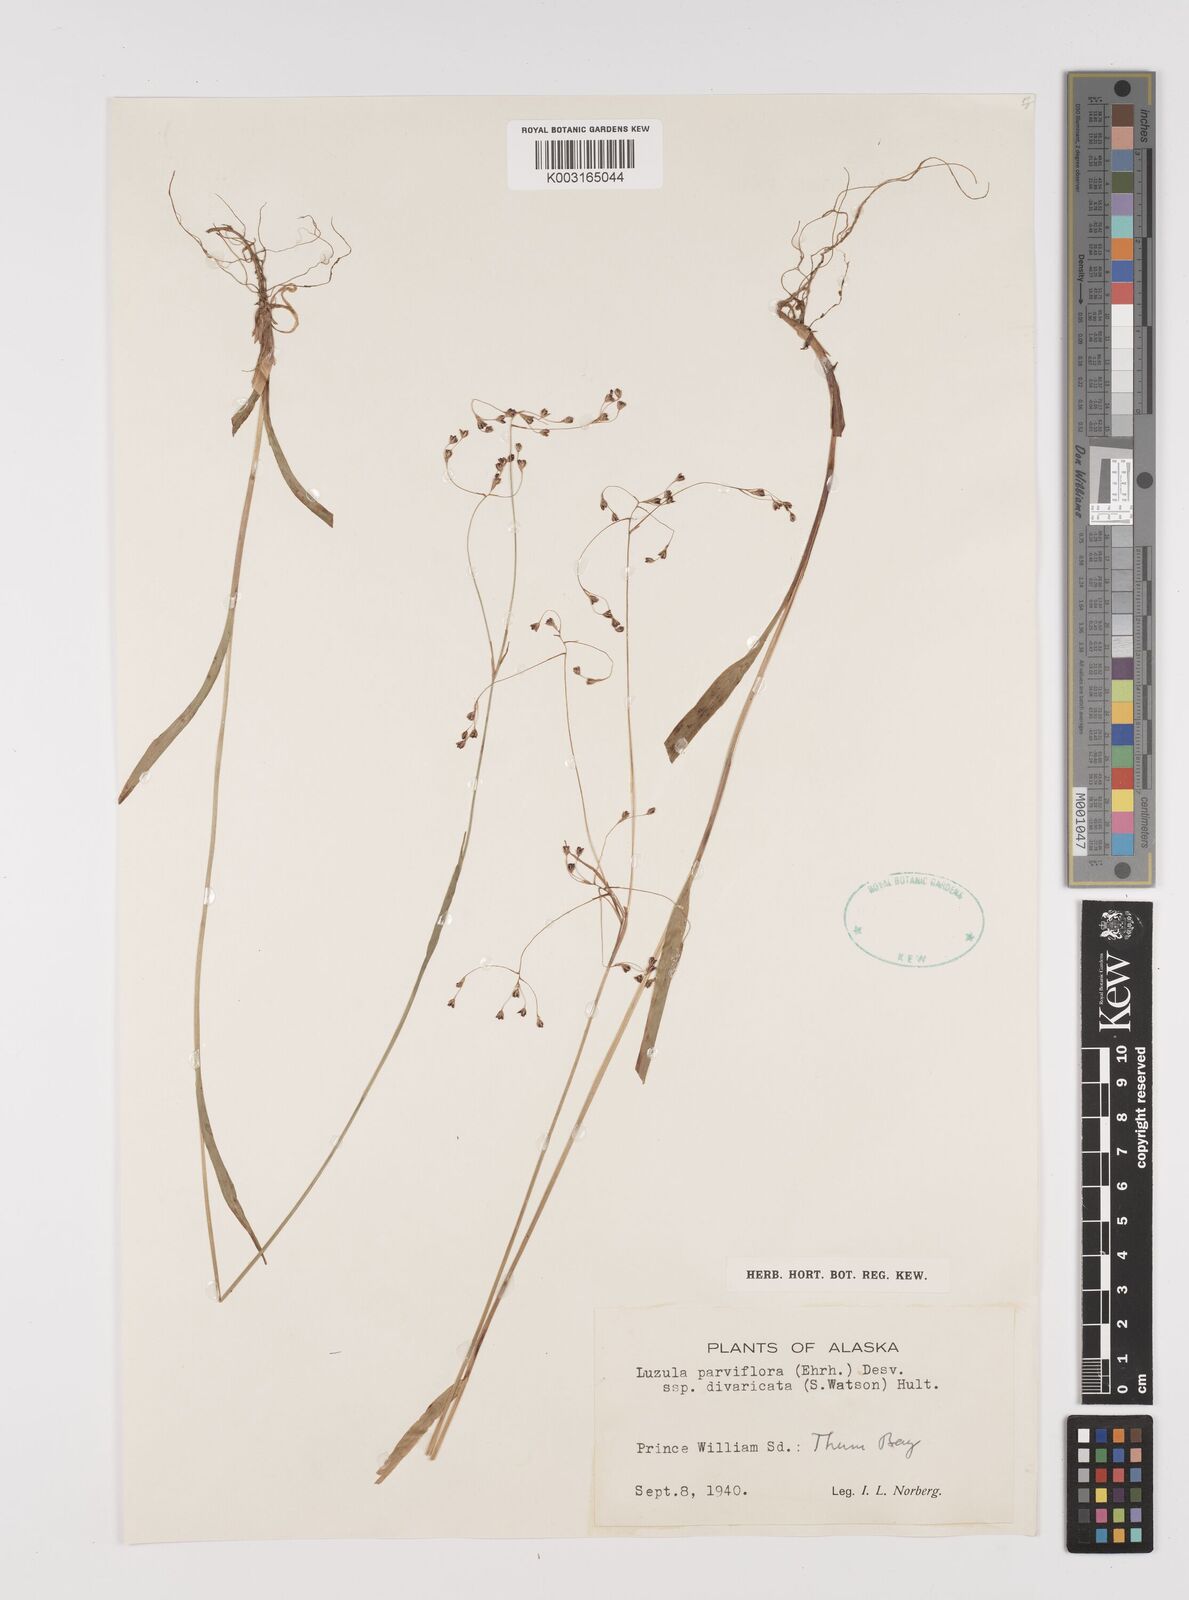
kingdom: Plantae
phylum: Tracheophyta
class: Liliopsida
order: Poales
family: Juncaceae
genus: Luzula
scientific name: Luzula divaricata
